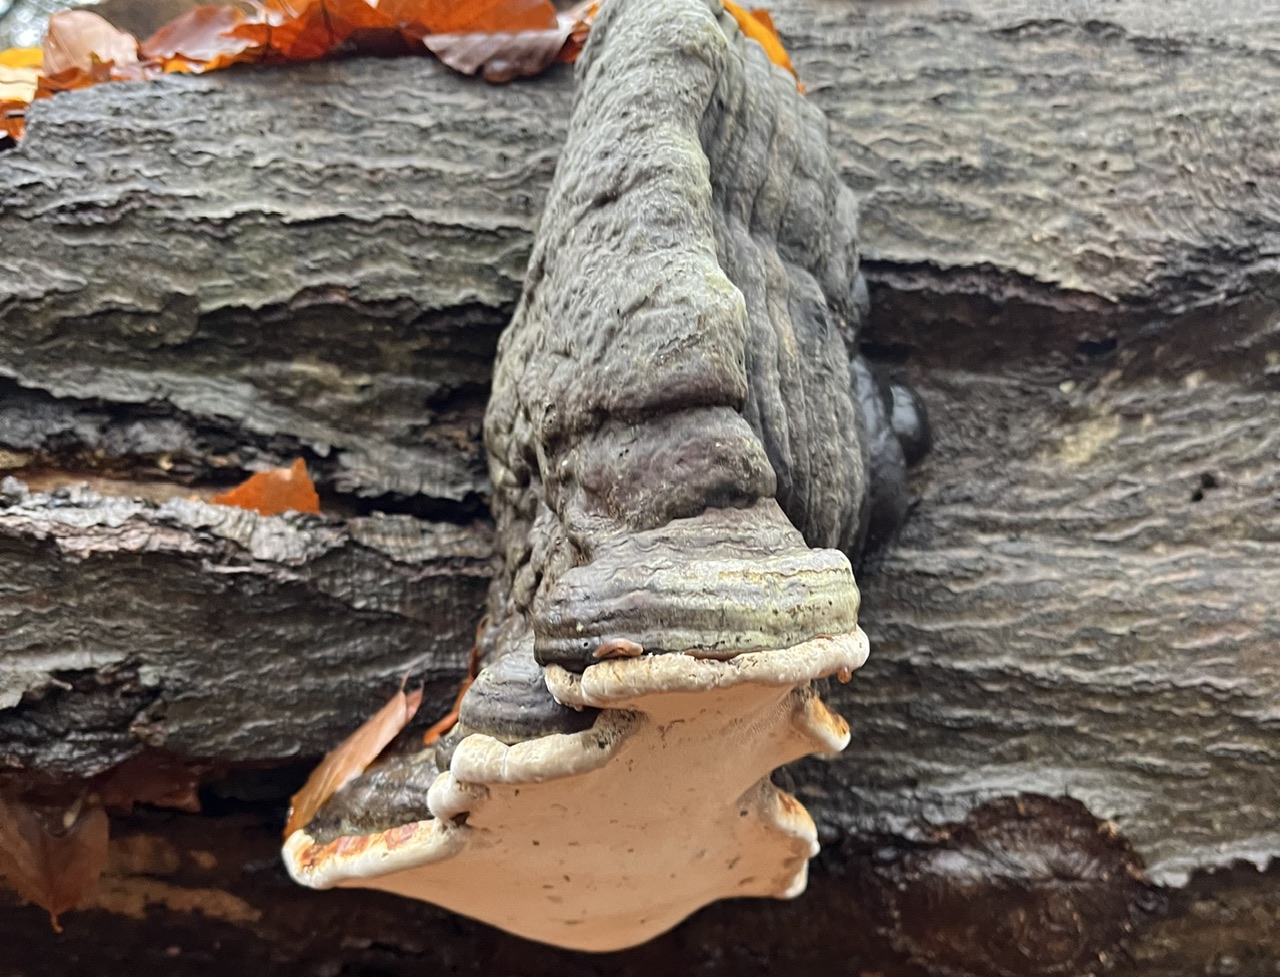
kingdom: Fungi
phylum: Basidiomycota
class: Agaricomycetes
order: Polyporales
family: Polyporaceae
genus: Fomes
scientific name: Fomes fomentarius
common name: tøndersvamp
